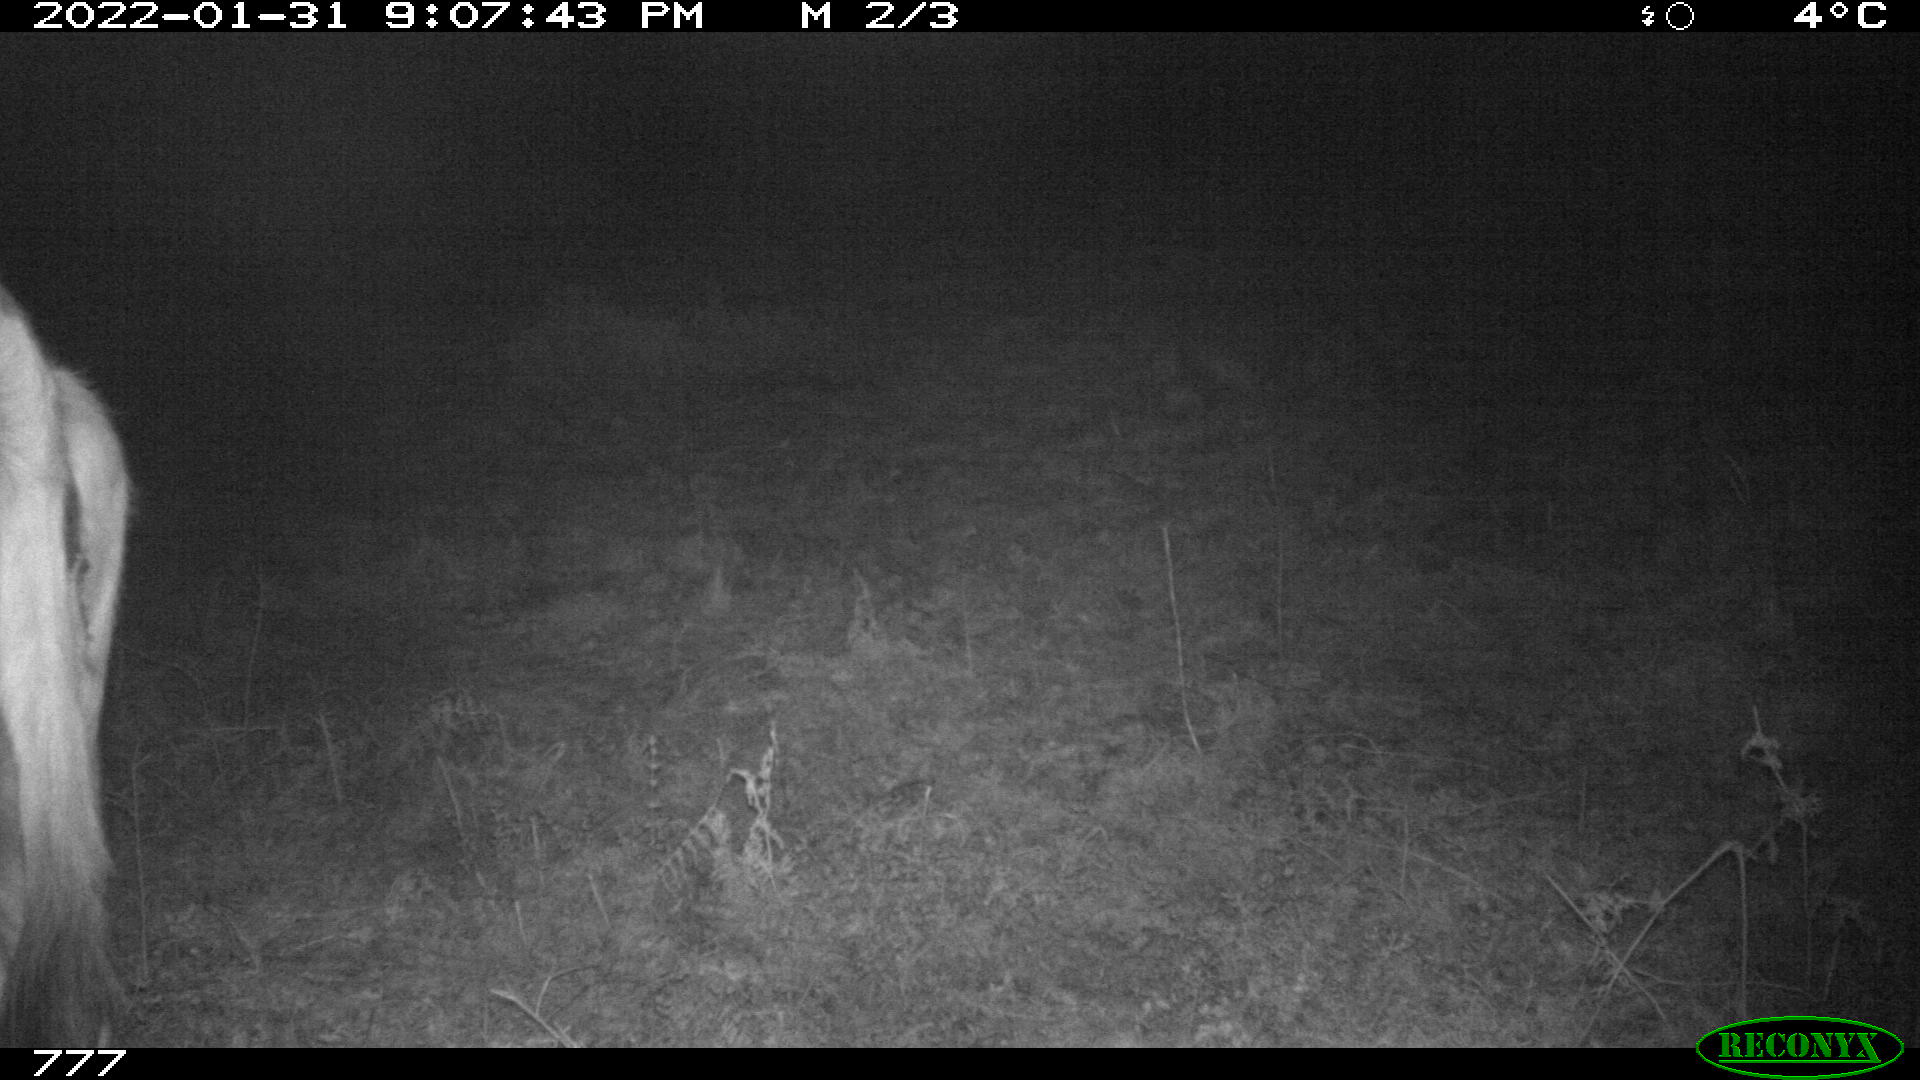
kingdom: Animalia
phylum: Chordata
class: Mammalia
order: Artiodactyla
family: Bovidae
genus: Bos
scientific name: Bos taurus
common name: Domesticated cattle
